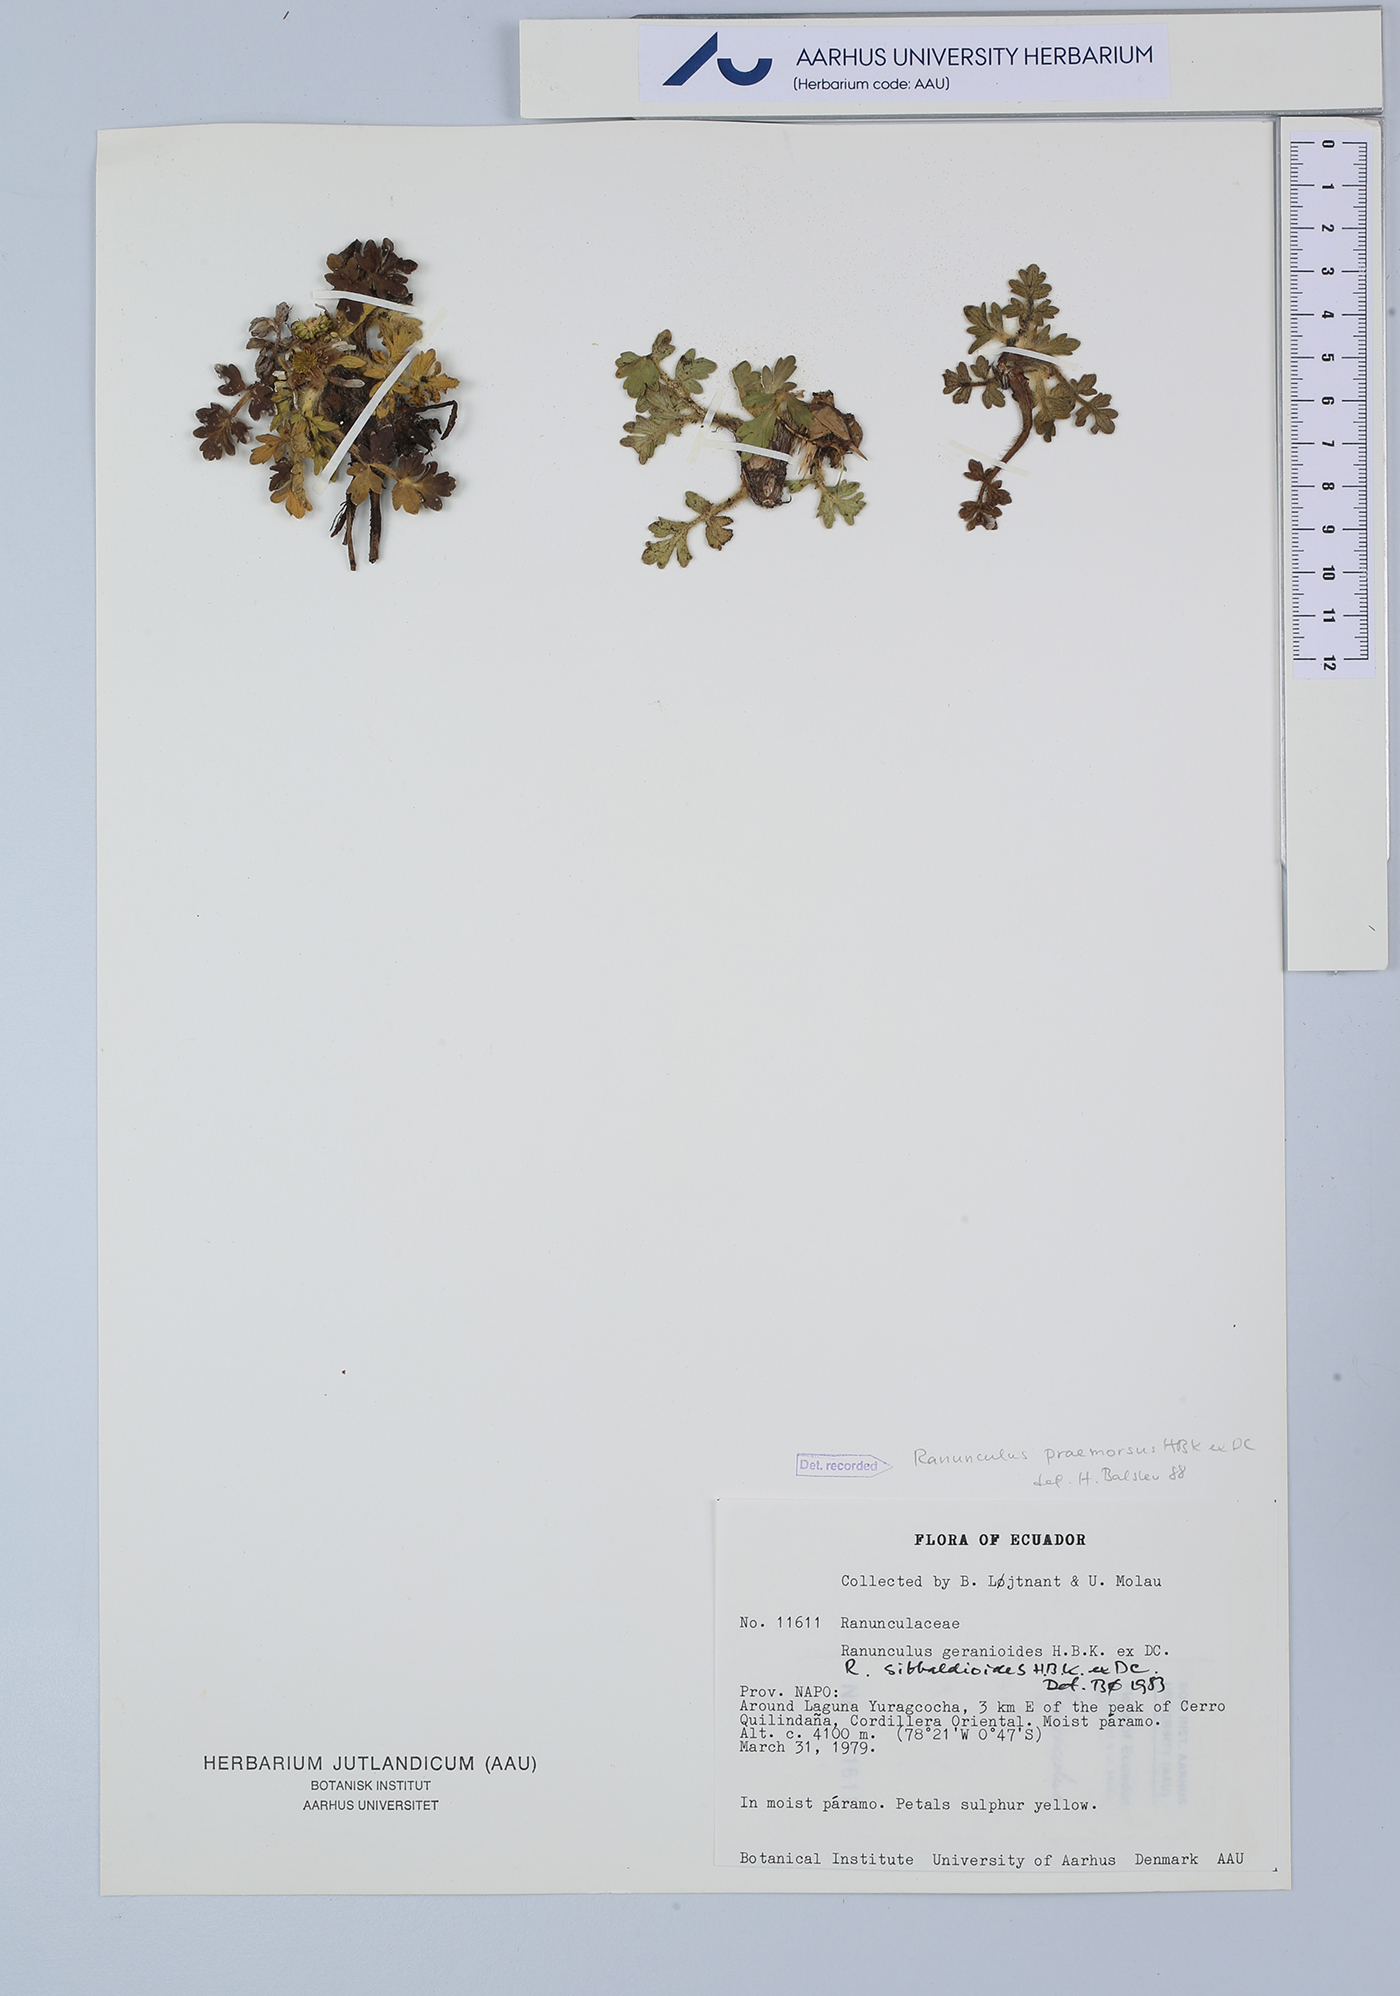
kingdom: Plantae
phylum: Tracheophyta
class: Magnoliopsida
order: Ranunculales
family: Ranunculaceae
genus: Ranunculus
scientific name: Ranunculus praemorsus
